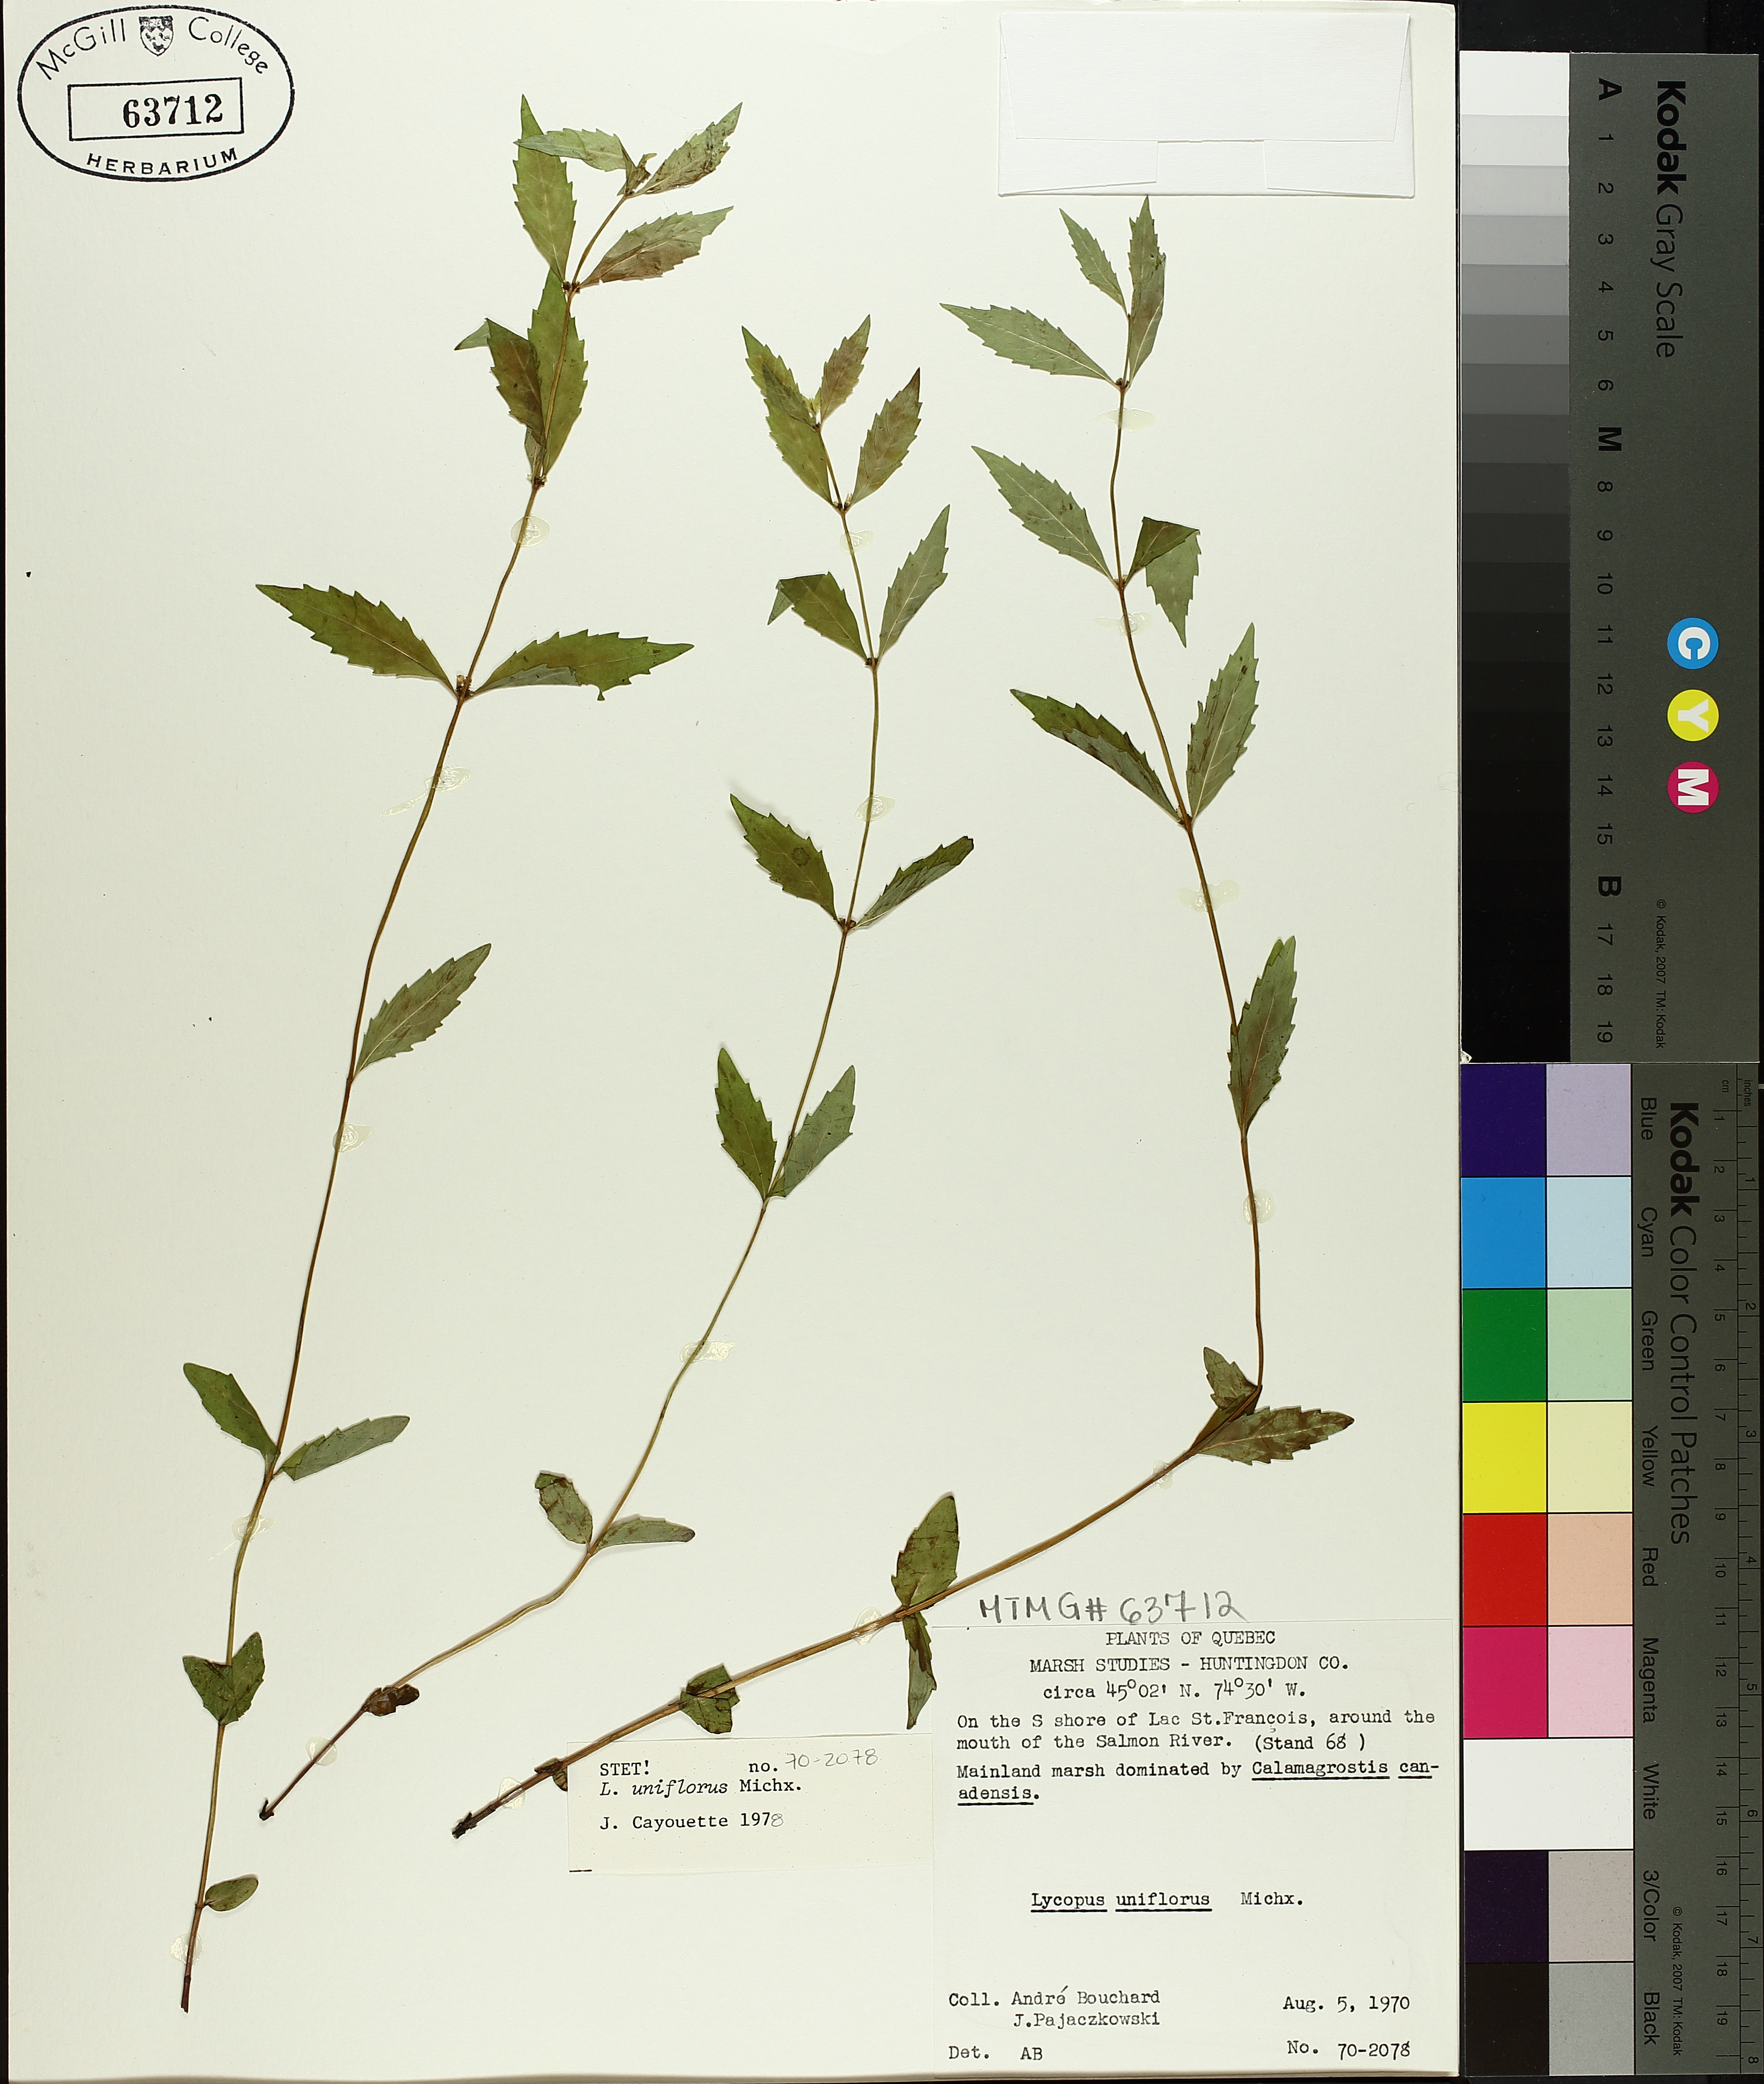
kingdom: Plantae
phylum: Tracheophyta
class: Magnoliopsida
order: Lamiales
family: Lamiaceae
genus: Lycopus
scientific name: Lycopus uniflorus
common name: Northern bugleweed
